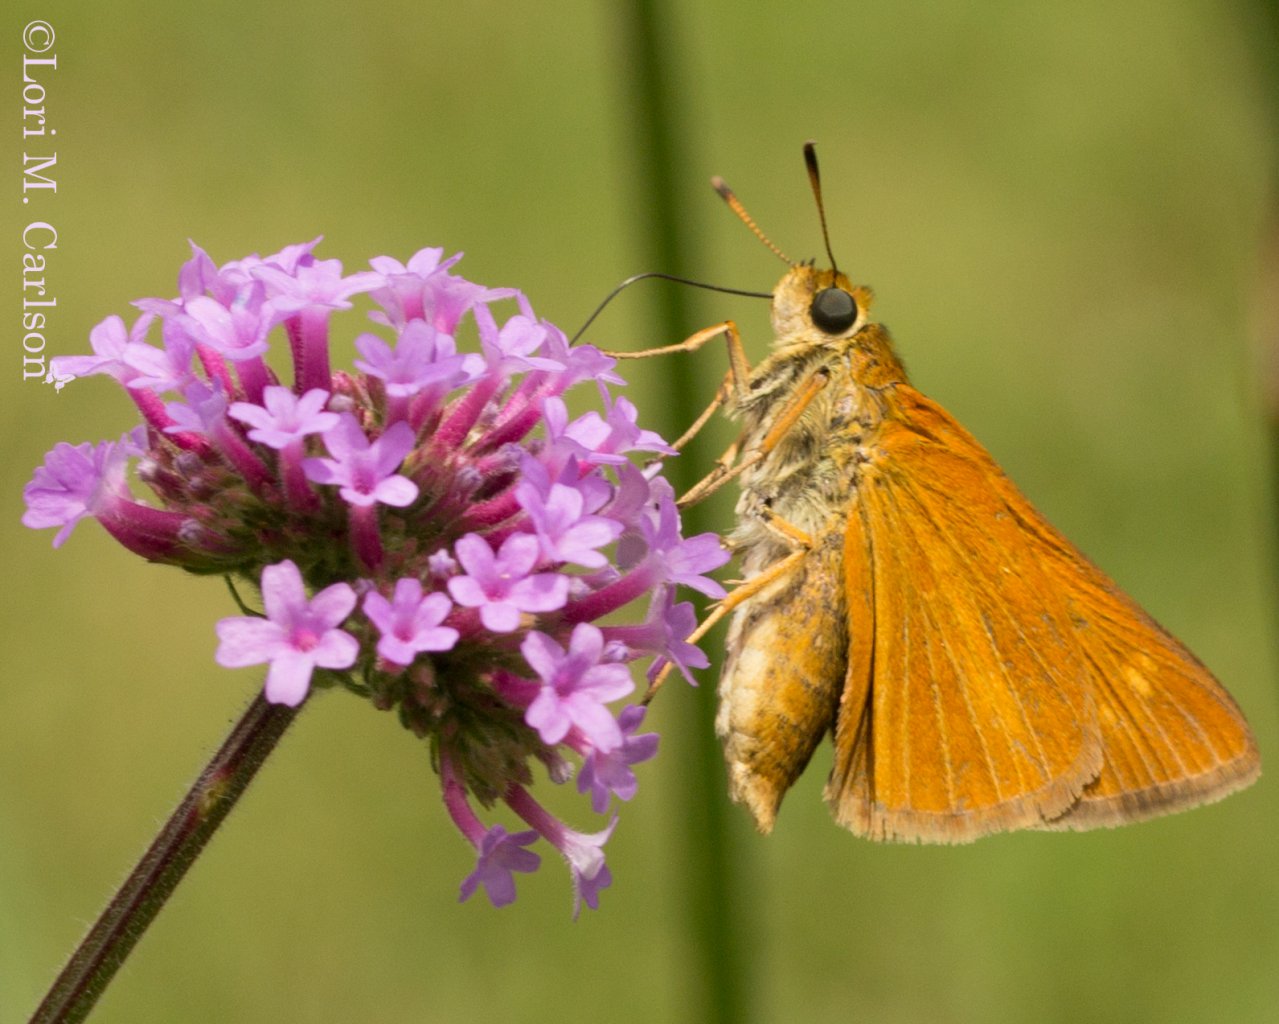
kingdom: Animalia
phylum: Arthropoda
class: Insecta
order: Lepidoptera
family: Hesperiidae
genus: Euphyes
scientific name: Euphyes dion
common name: Dion Skipper
